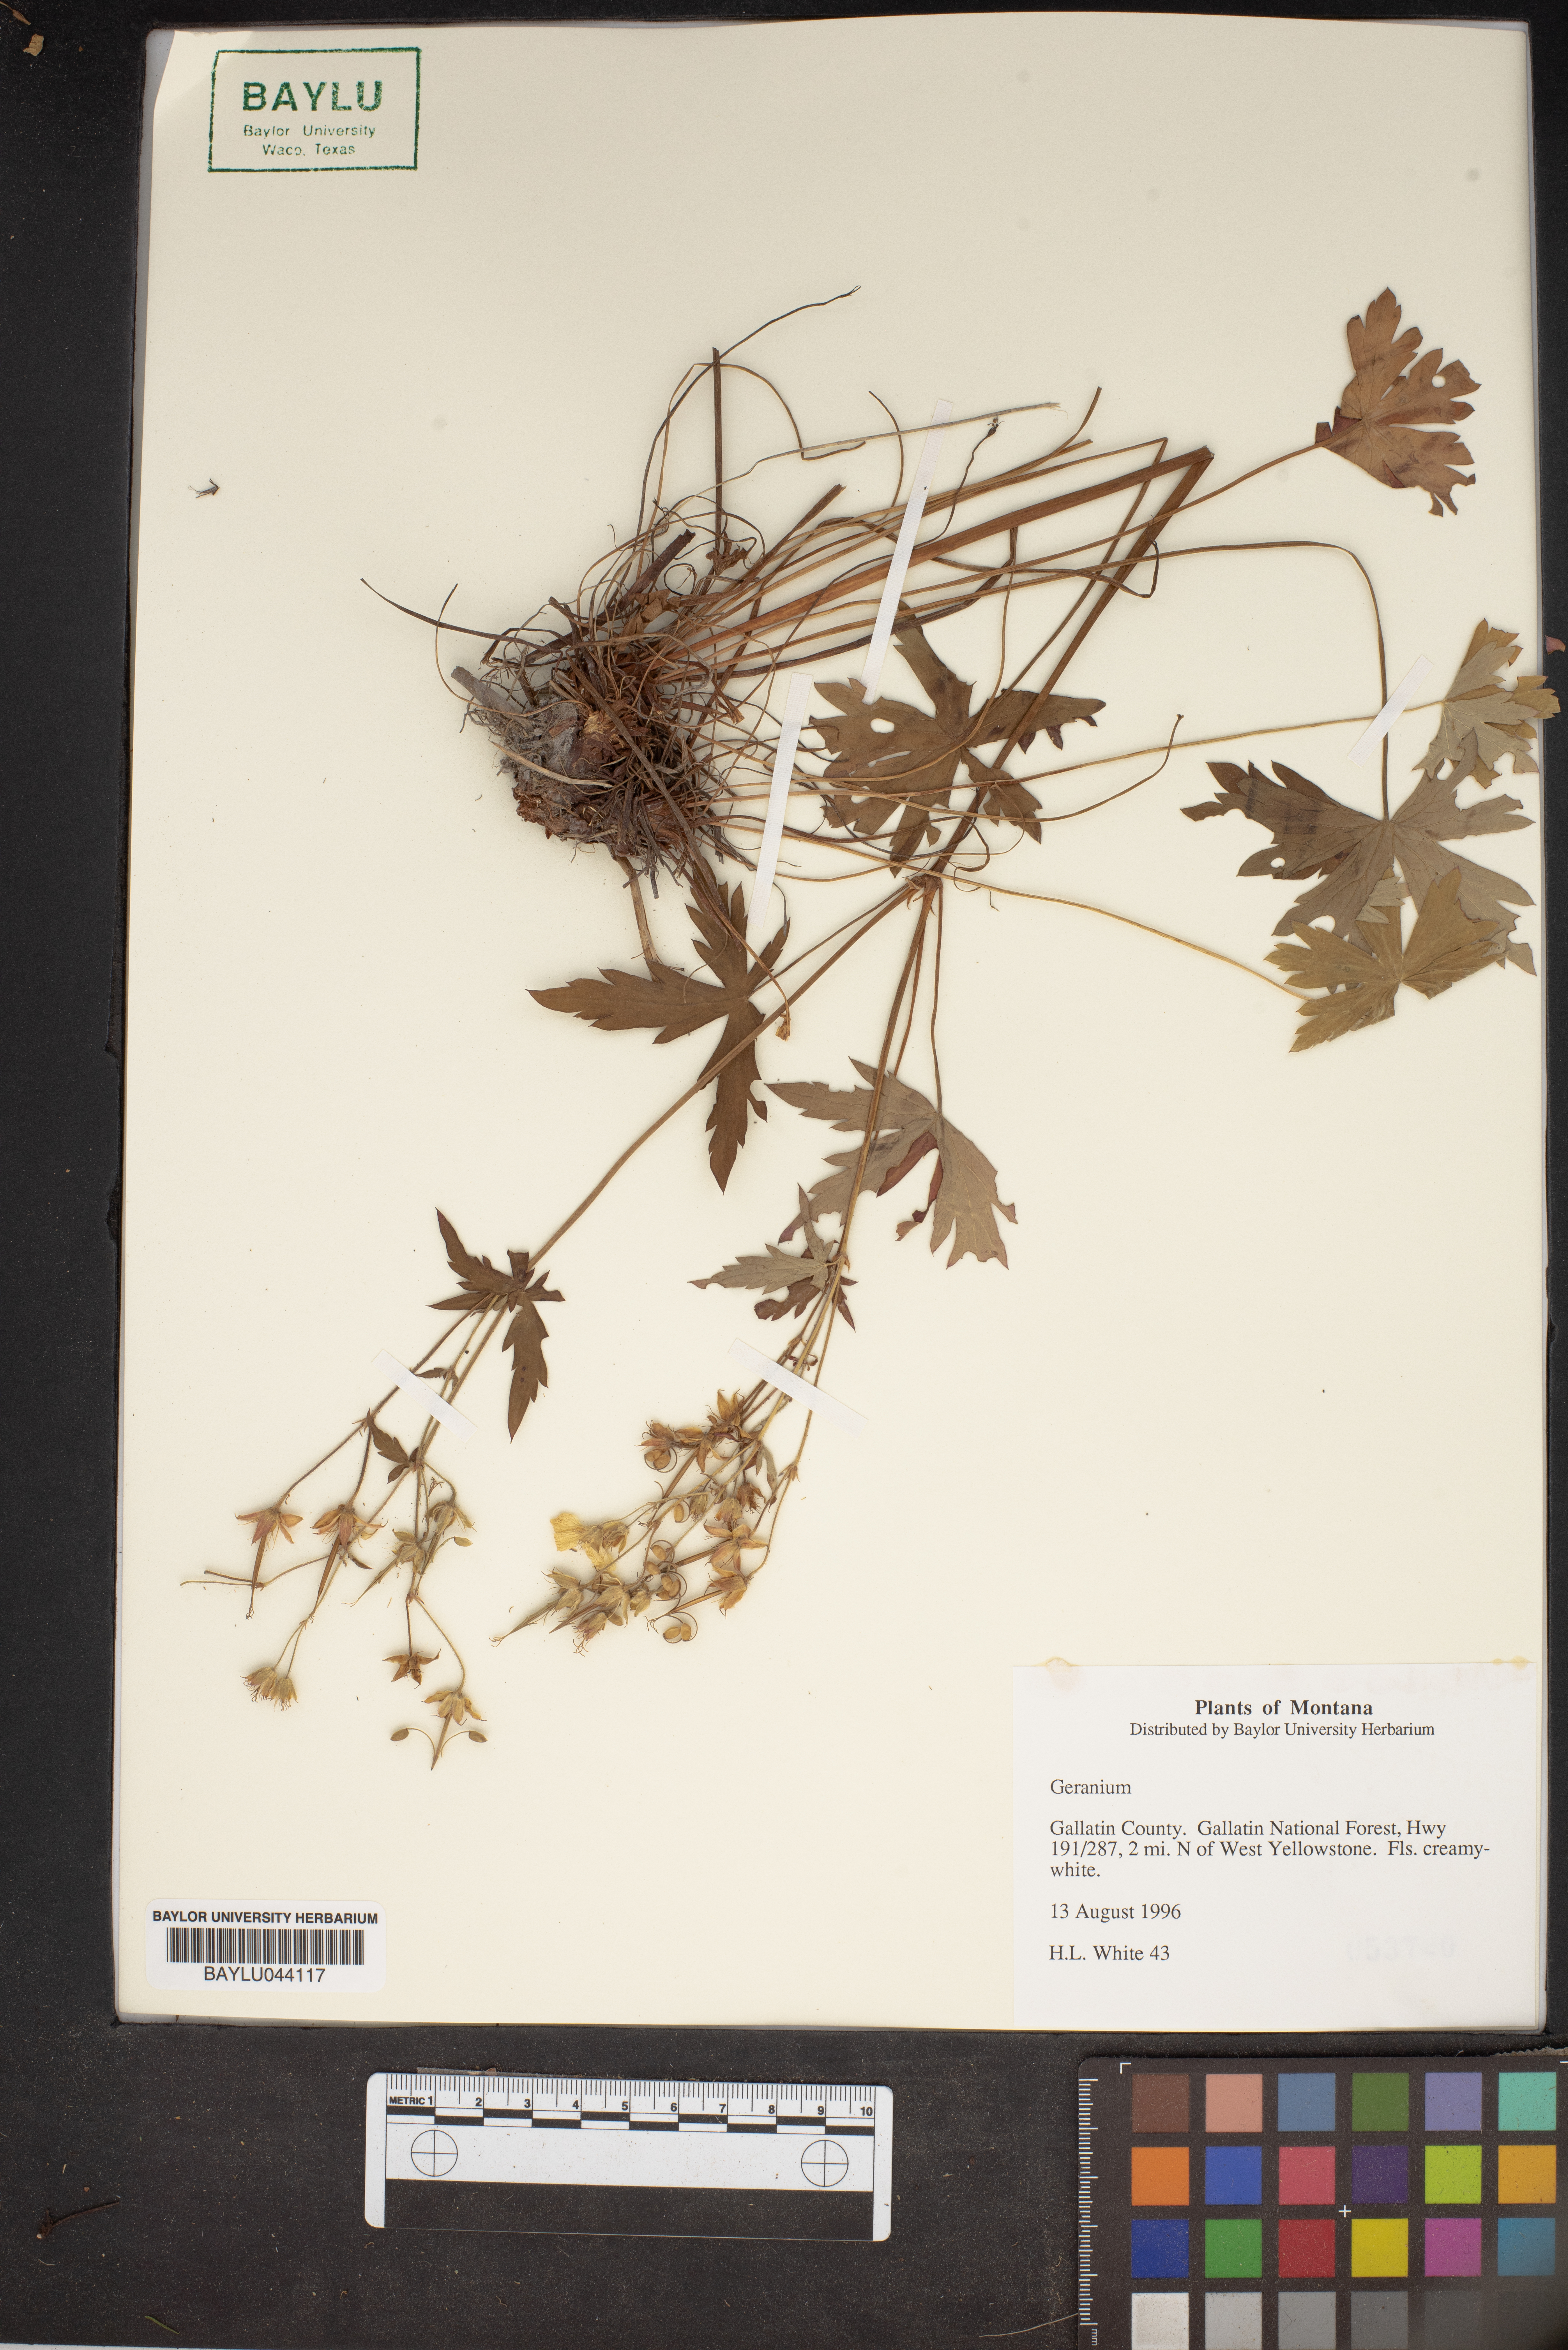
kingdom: Plantae
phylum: Tracheophyta
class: Magnoliopsida
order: Geraniales
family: Geraniaceae
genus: Geranium
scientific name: Geranium
